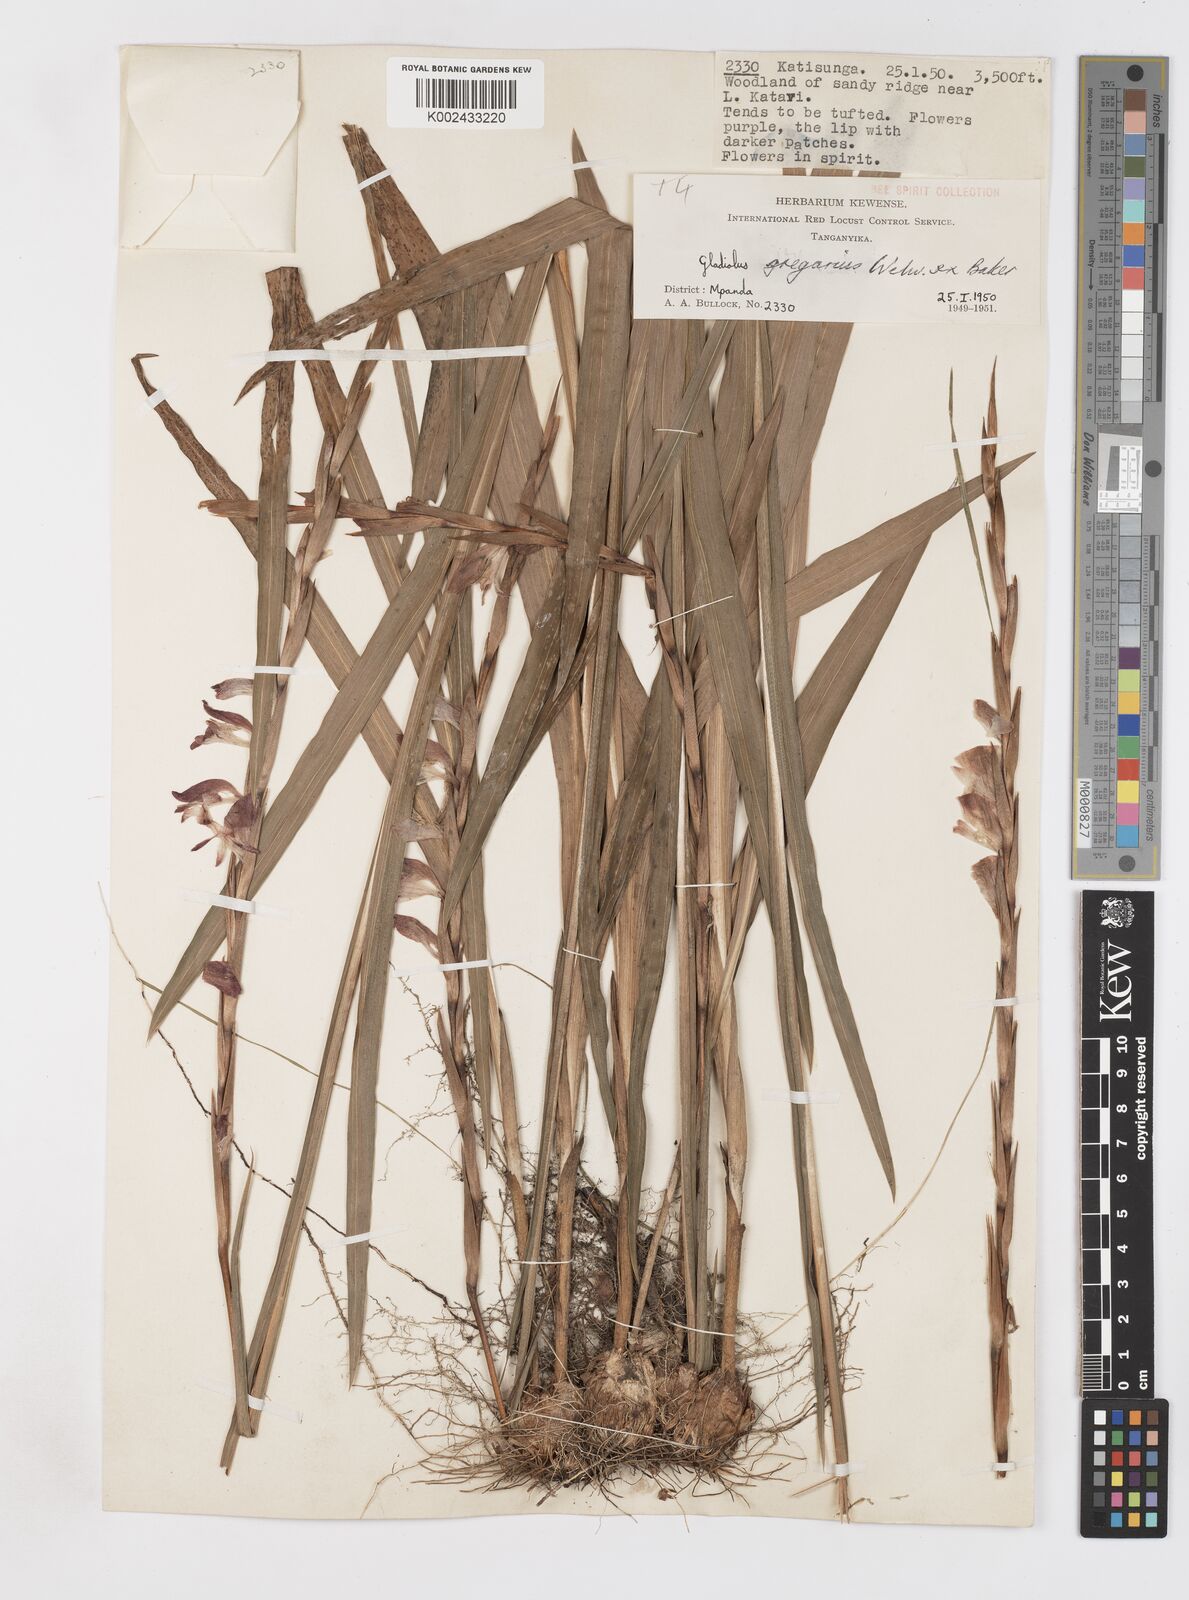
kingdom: Plantae
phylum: Tracheophyta
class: Liliopsida
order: Asparagales
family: Iridaceae
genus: Gladiolus
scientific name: Gladiolus gregarius
